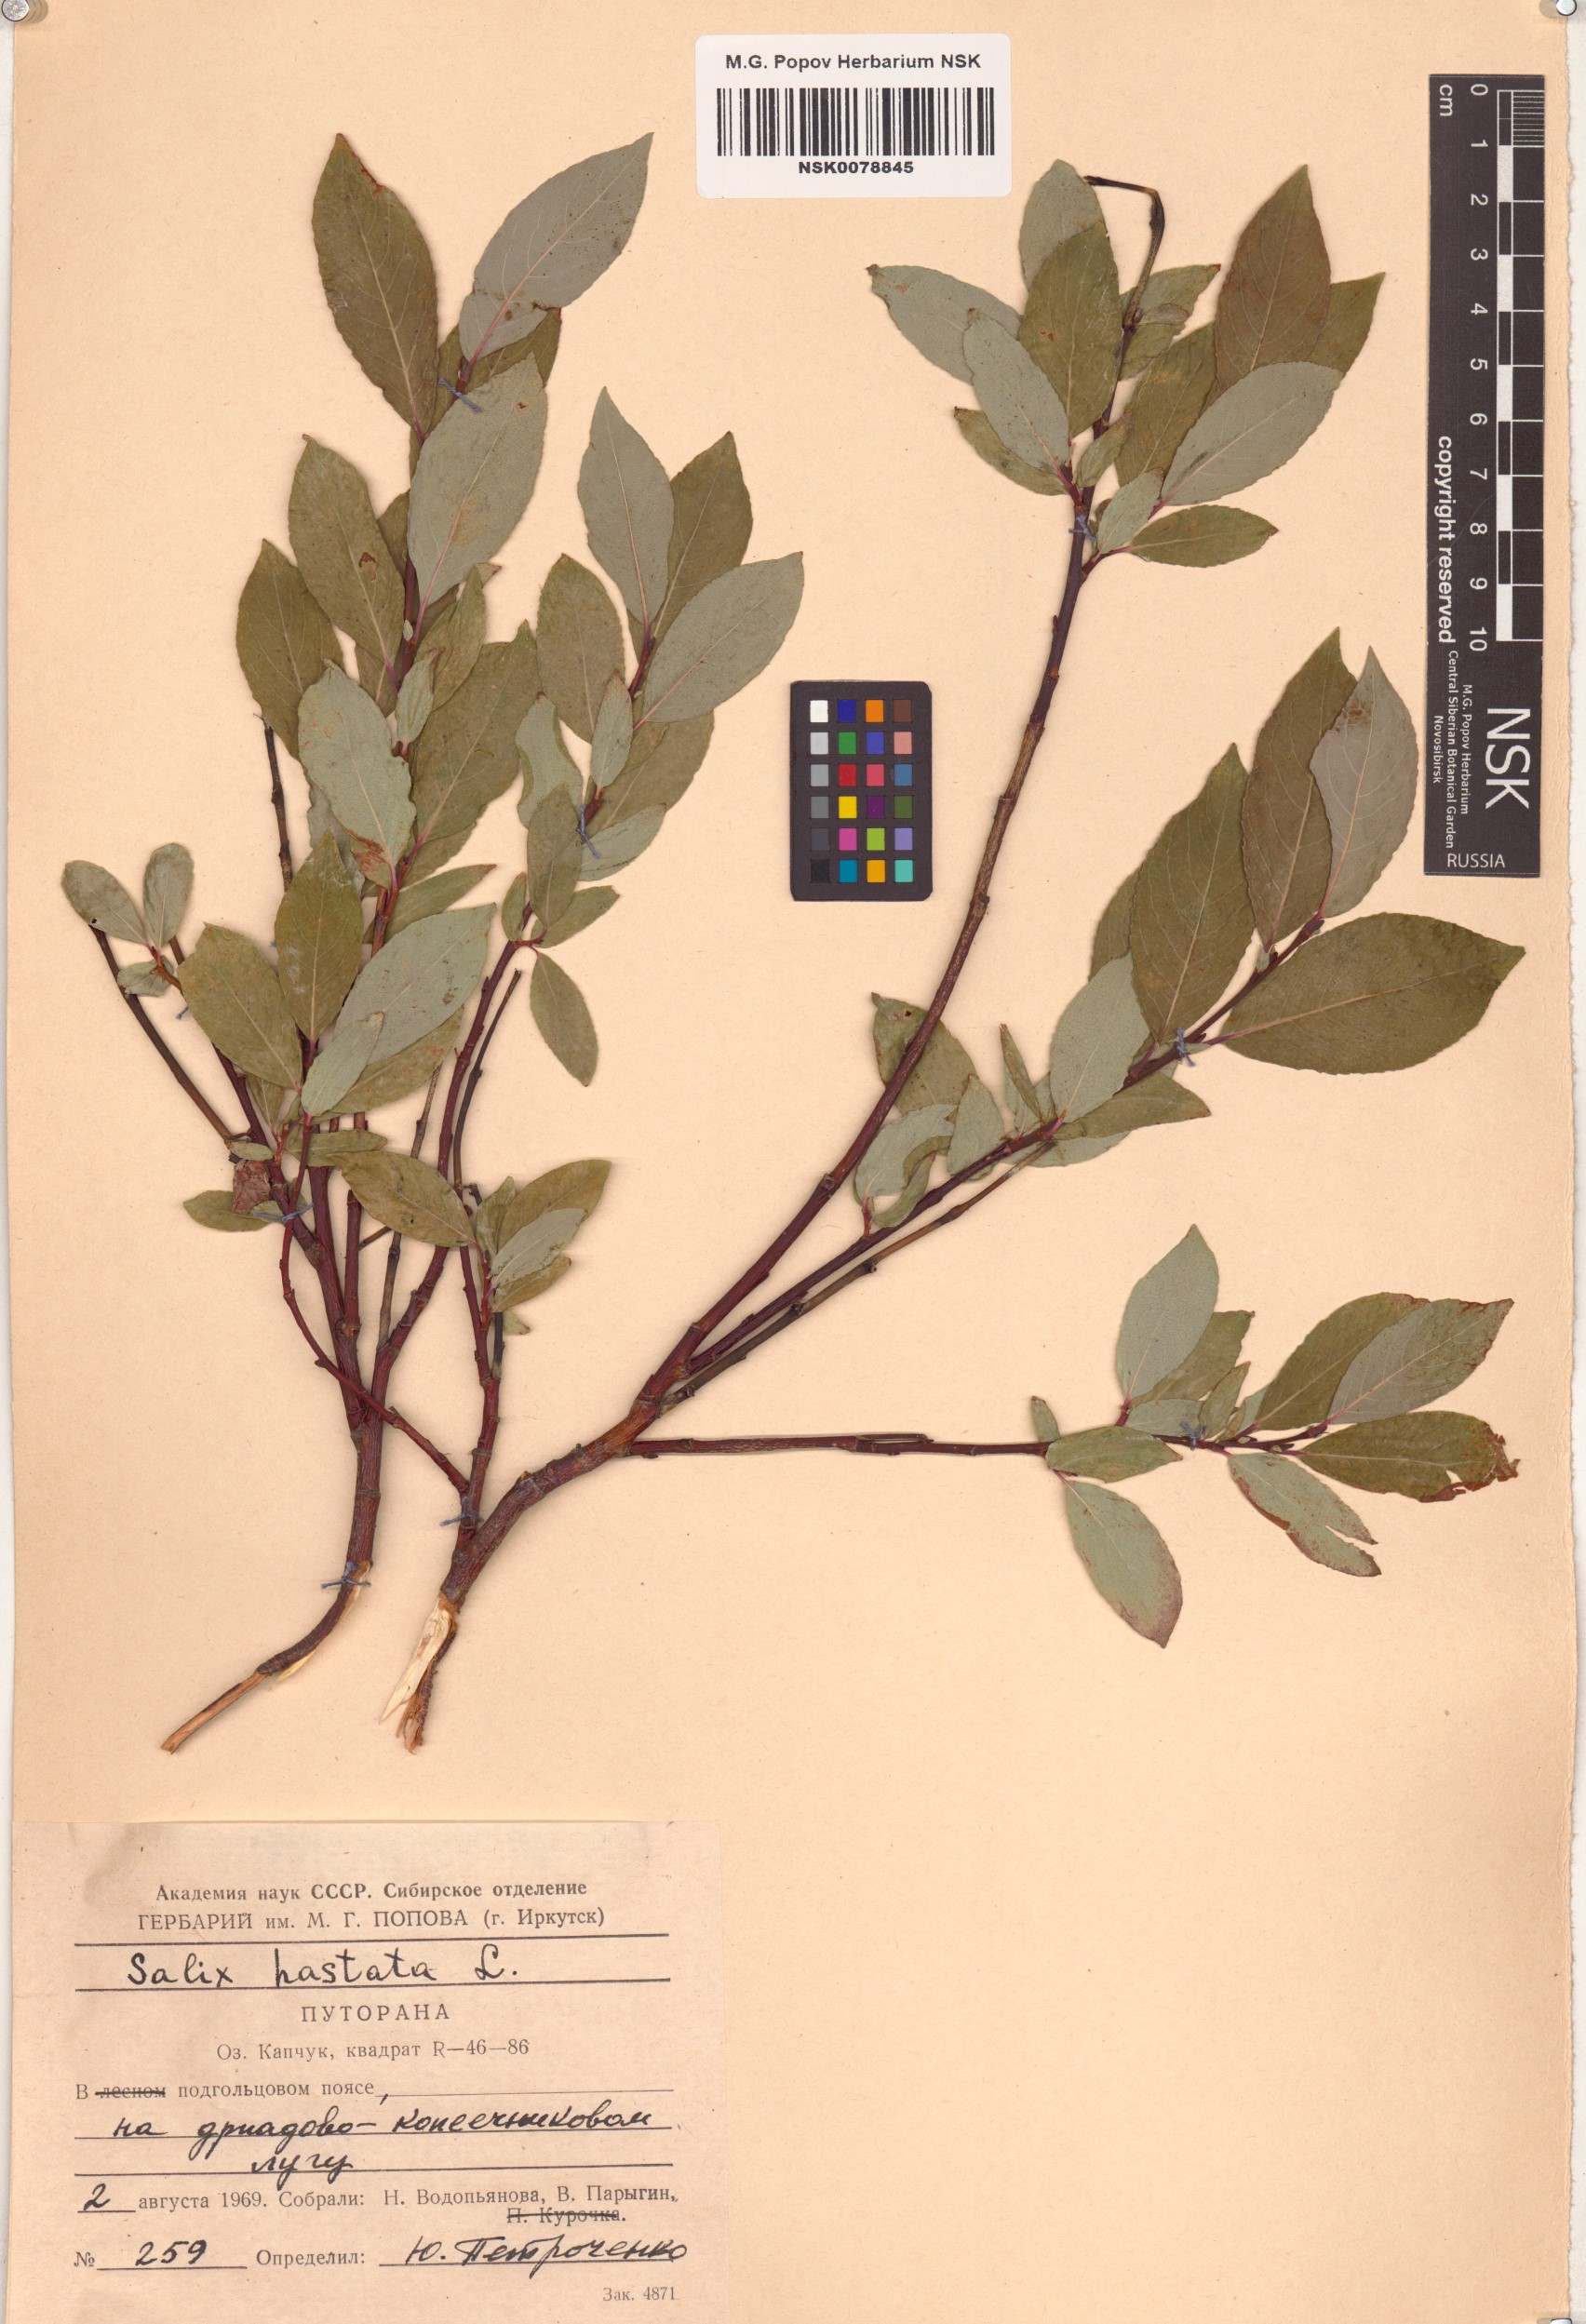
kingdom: Plantae
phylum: Tracheophyta
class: Magnoliopsida
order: Malpighiales
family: Salicaceae
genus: Salix
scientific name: Salix hastata
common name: Halberd willow
